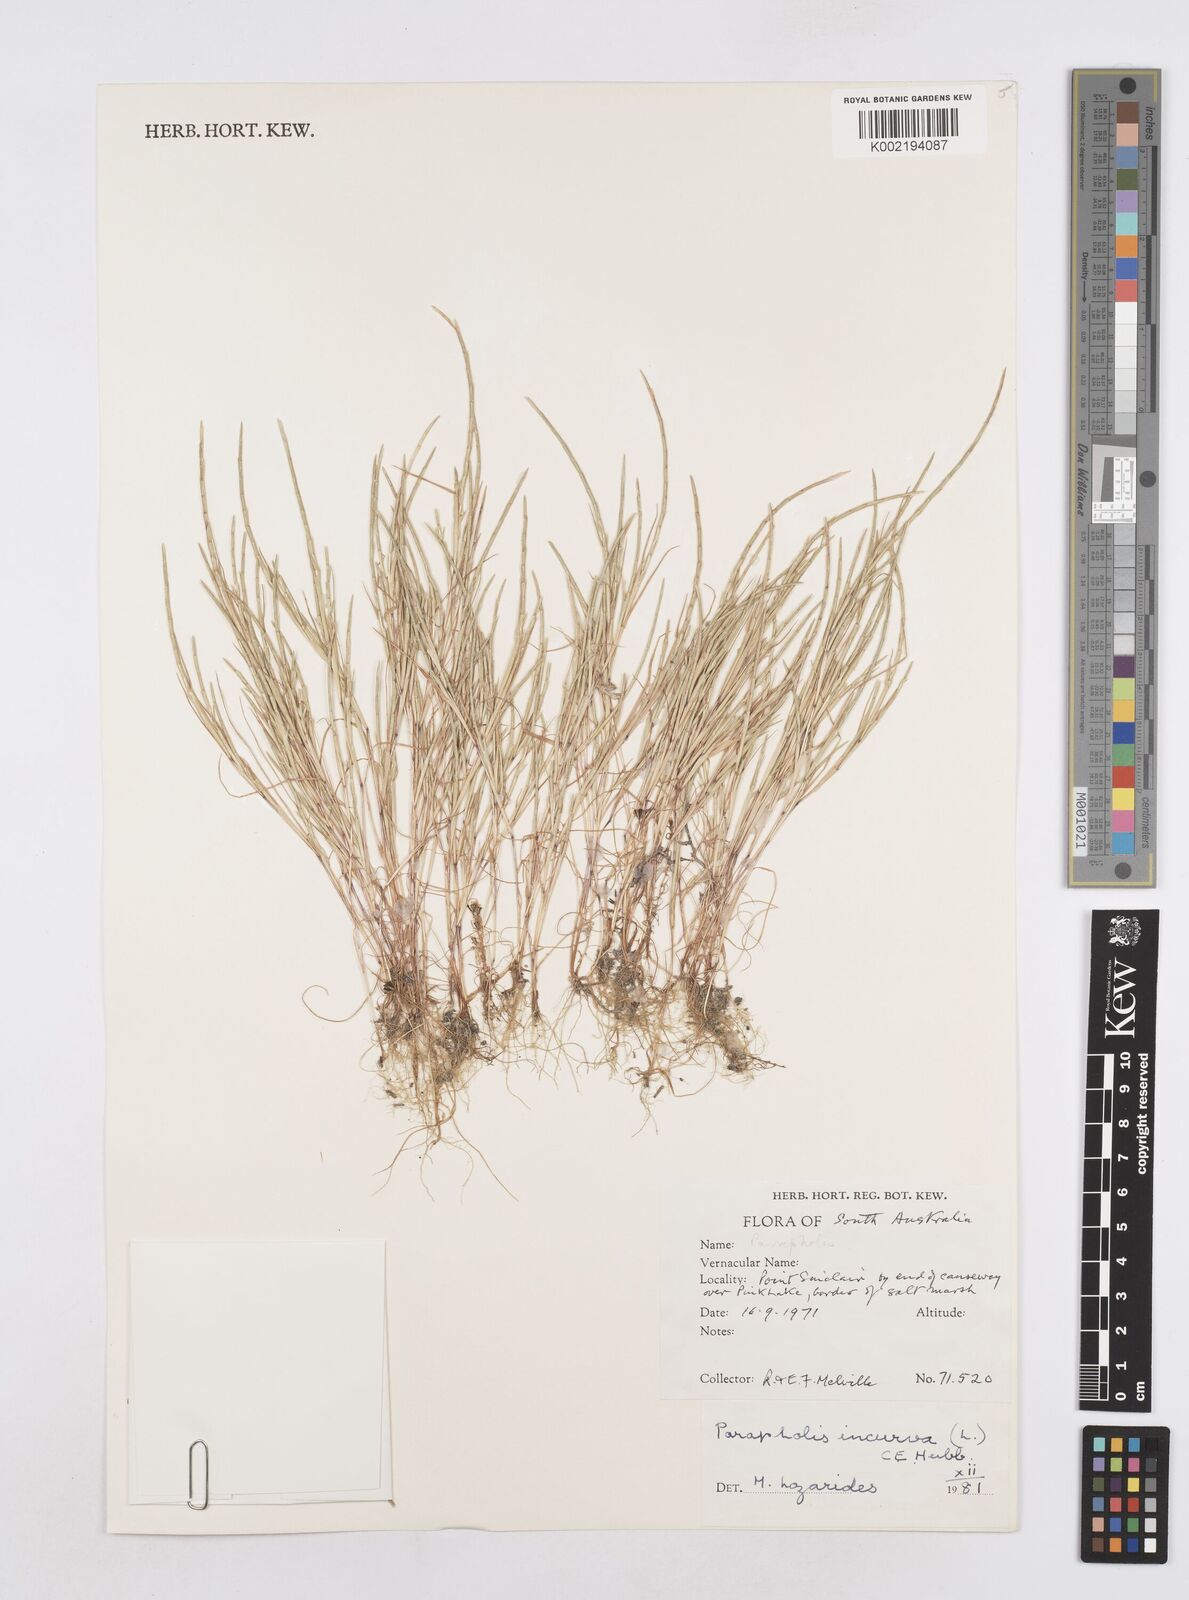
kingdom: Plantae
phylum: Tracheophyta
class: Liliopsida
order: Poales
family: Poaceae
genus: Parapholis
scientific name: Parapholis strigosa
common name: Hard-grass
